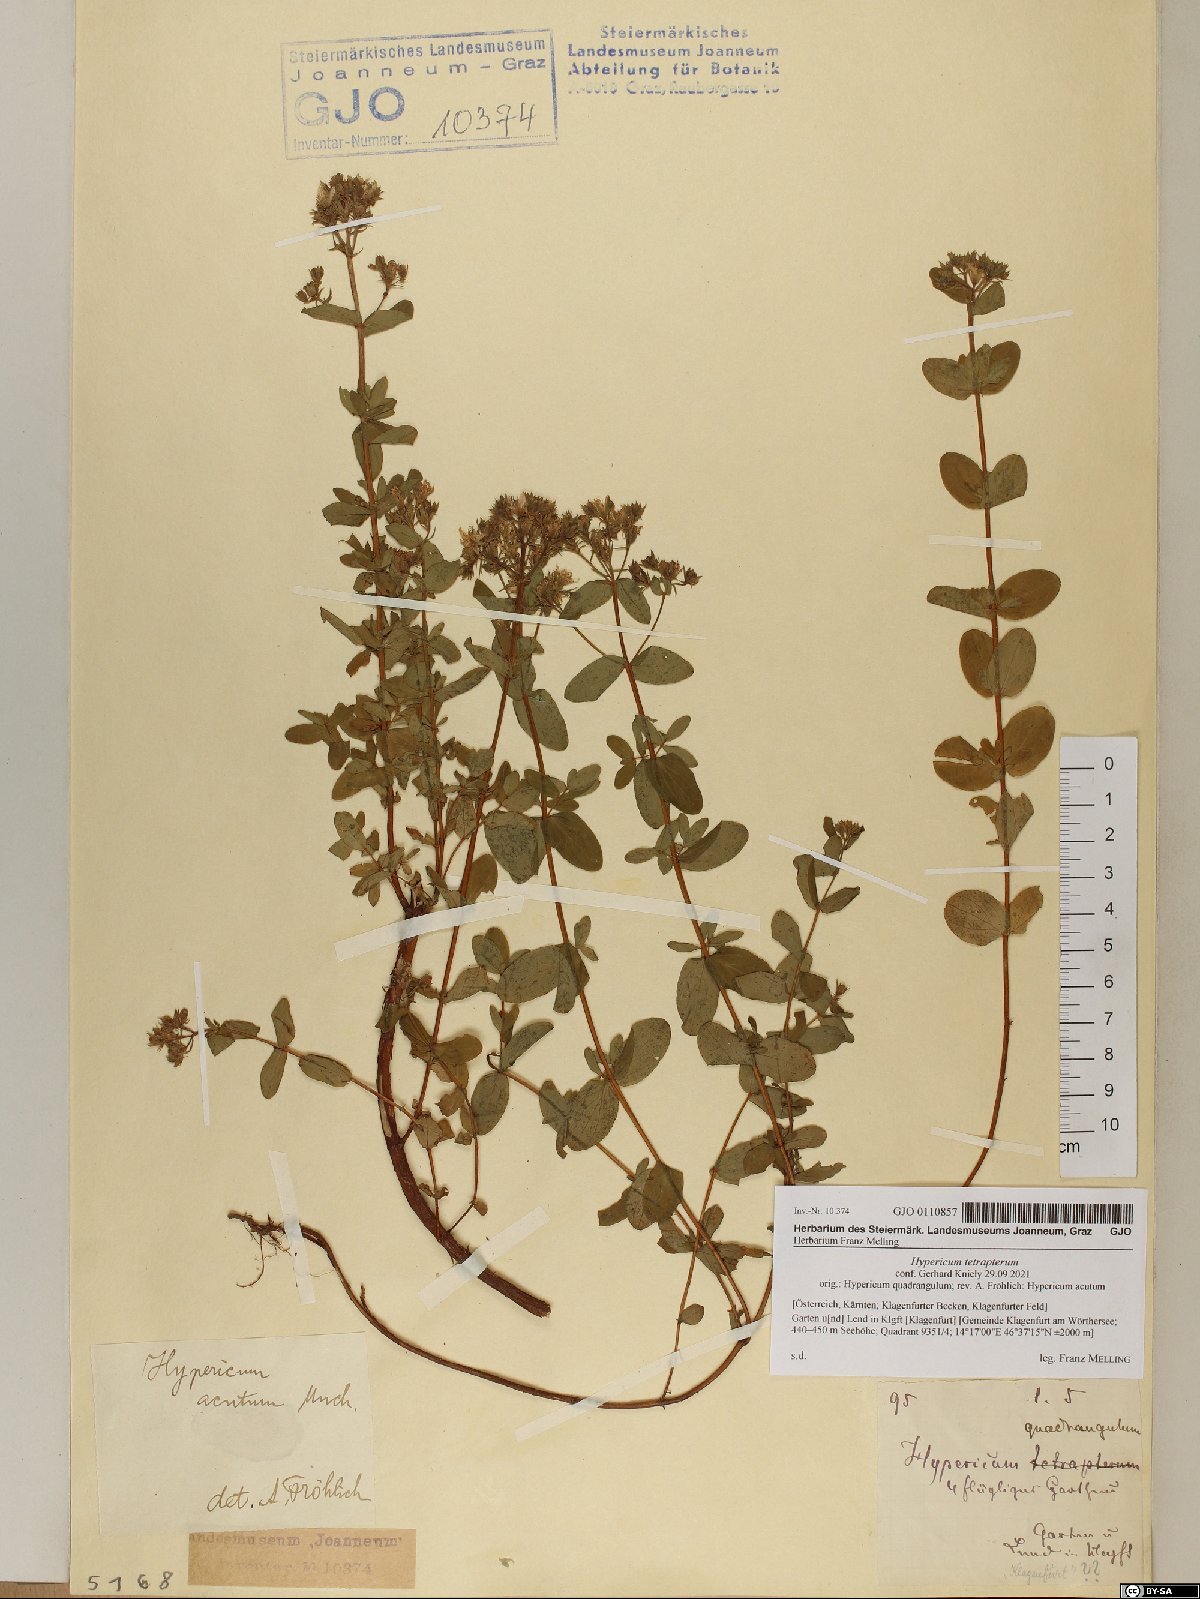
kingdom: Plantae
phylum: Tracheophyta
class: Magnoliopsida
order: Malpighiales
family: Hypericaceae
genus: Hypericum
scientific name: Hypericum tetrapterum
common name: Square-stalked st. john's-wort
